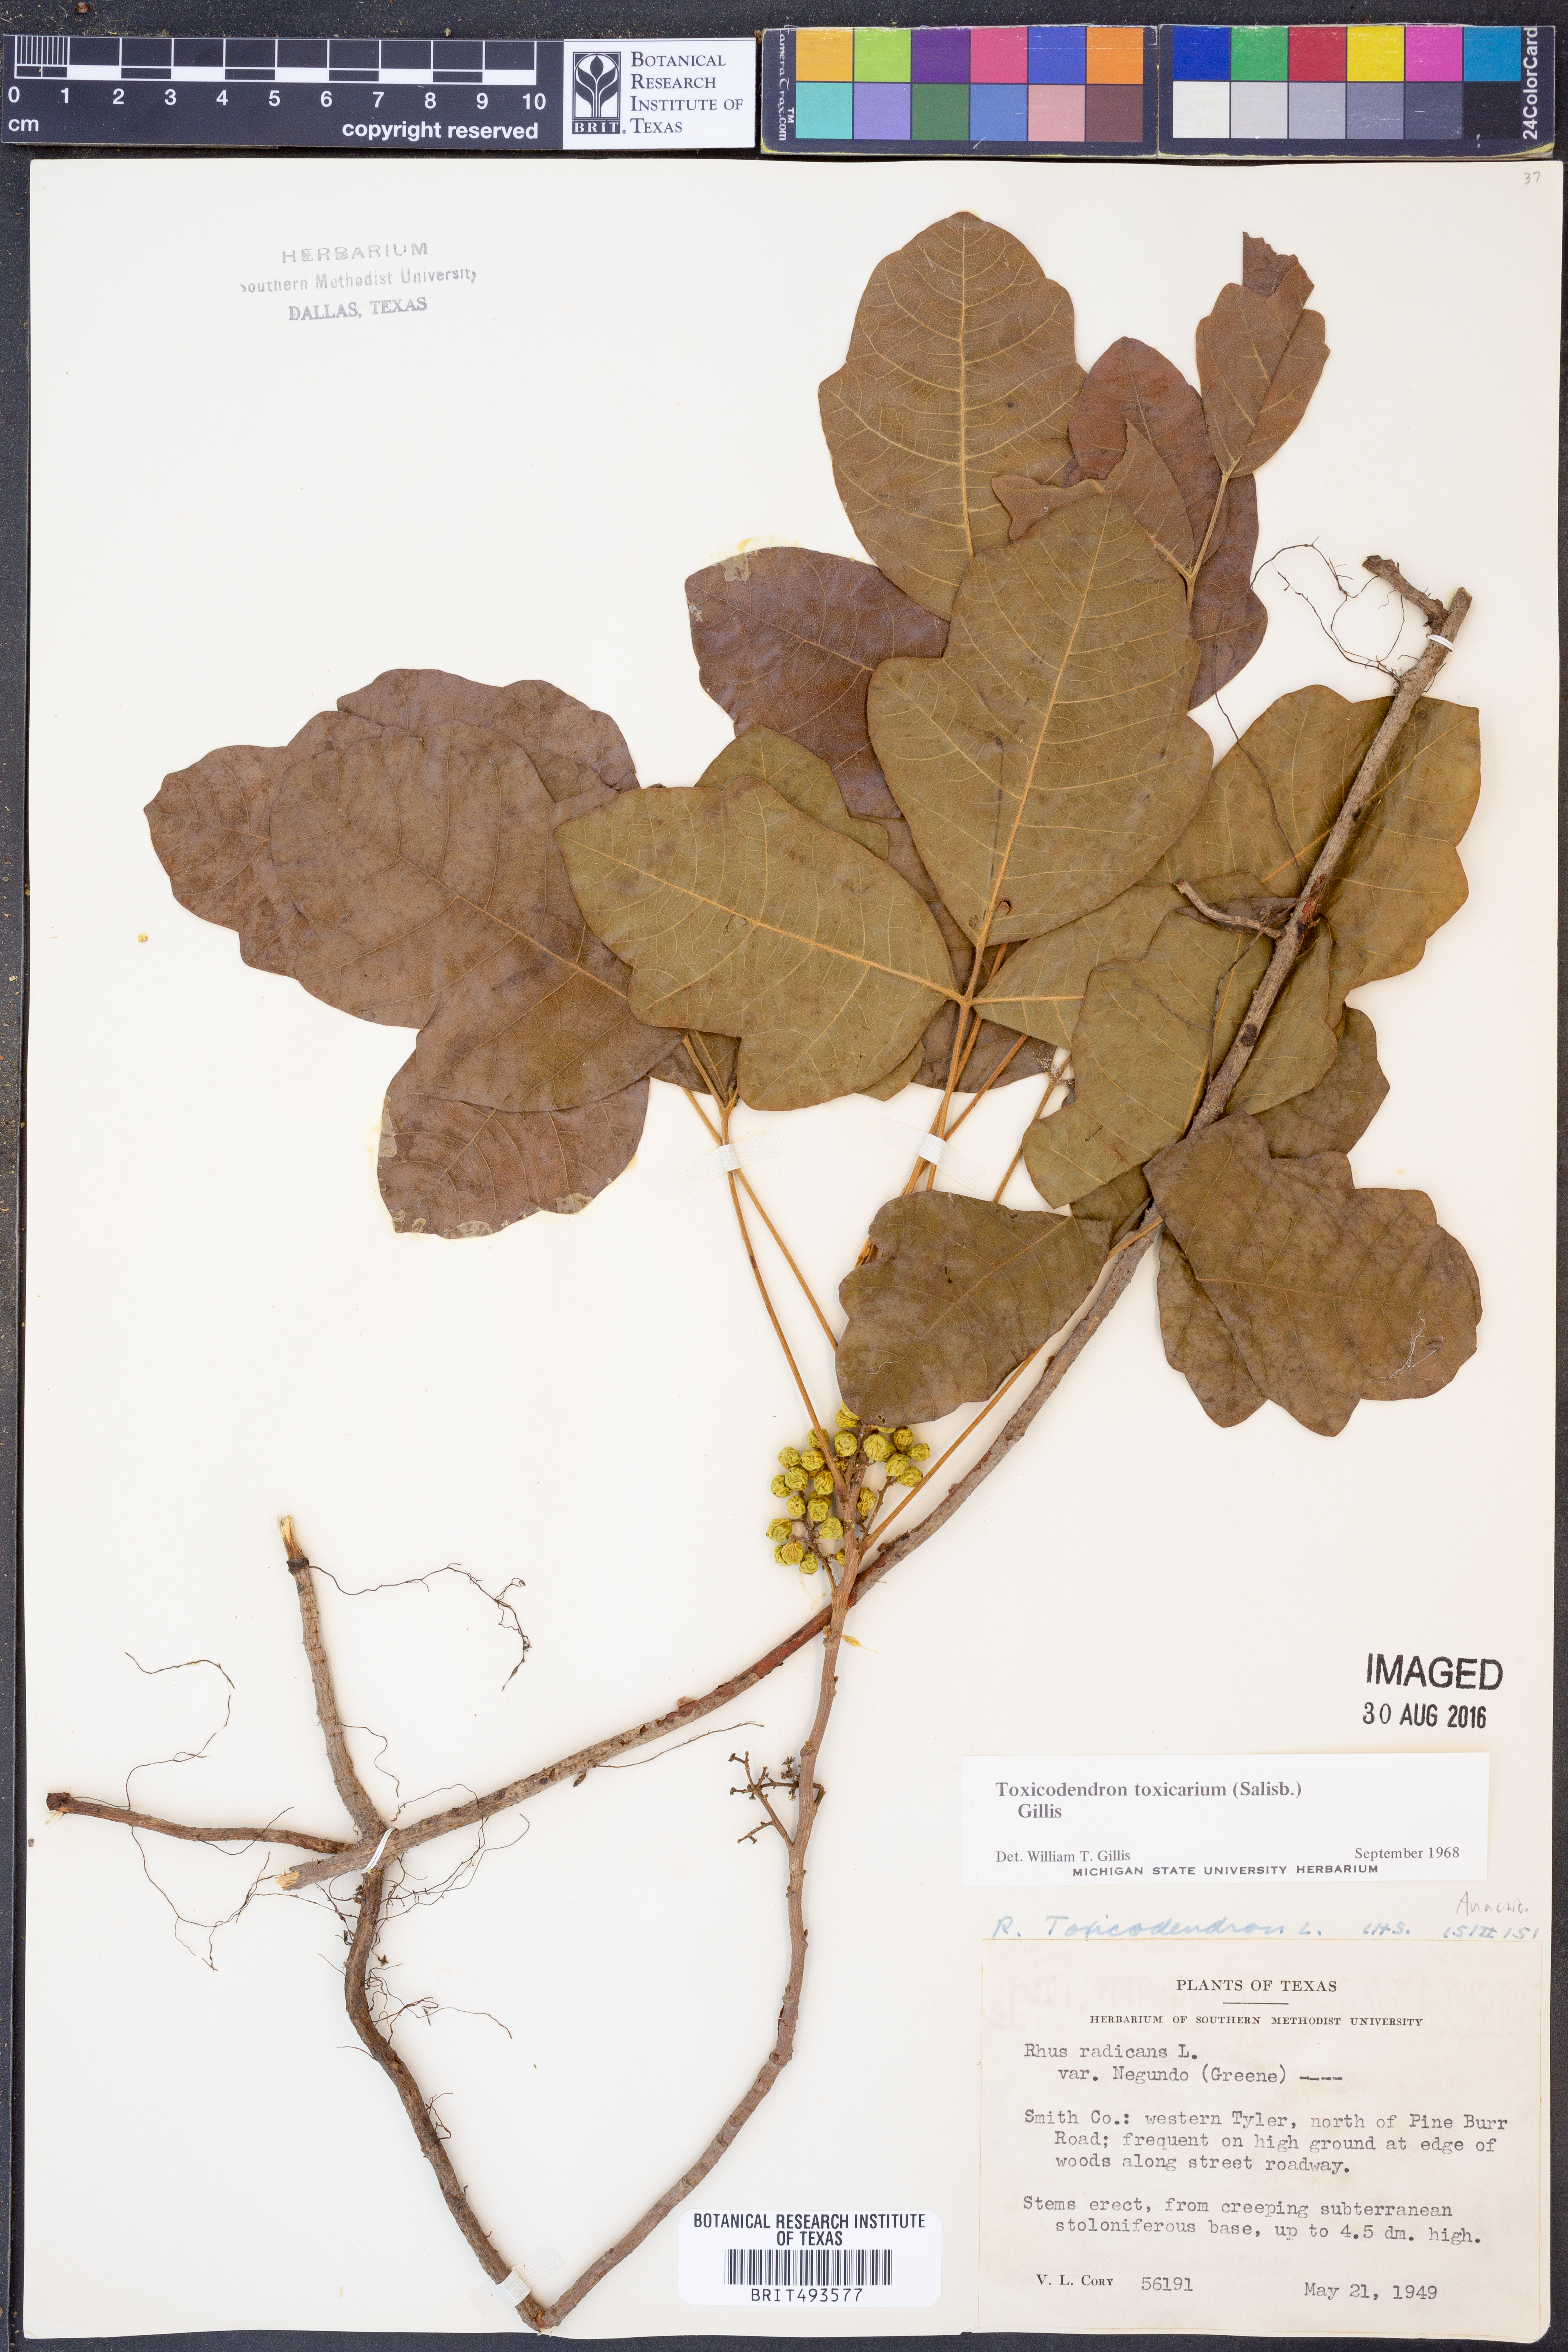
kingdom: Plantae
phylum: Tracheophyta
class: Magnoliopsida
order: Sapindales
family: Anacardiaceae
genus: Toxicodendron
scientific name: Toxicodendron pubescens
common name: Eastern poison-oak
